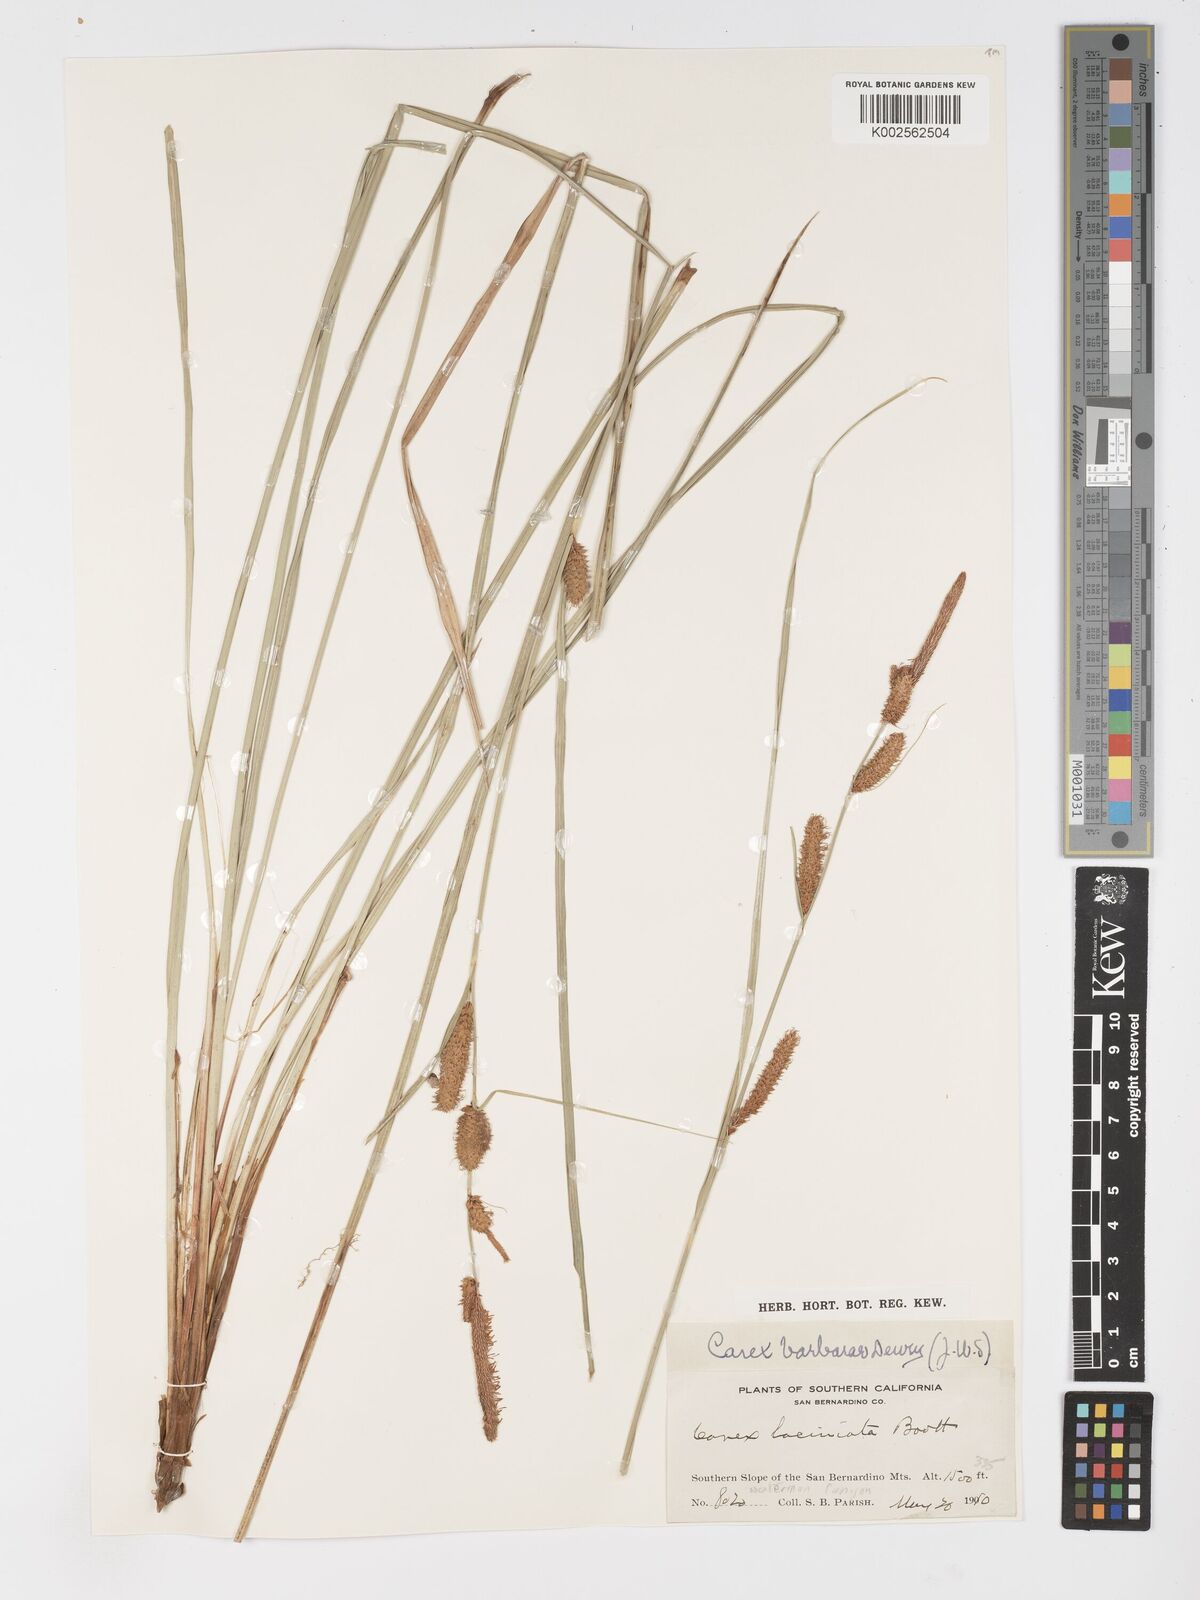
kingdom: Plantae
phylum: Tracheophyta
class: Liliopsida
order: Poales
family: Cyperaceae
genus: Carex
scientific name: Carex barbarae
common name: Santa barbara sedge
